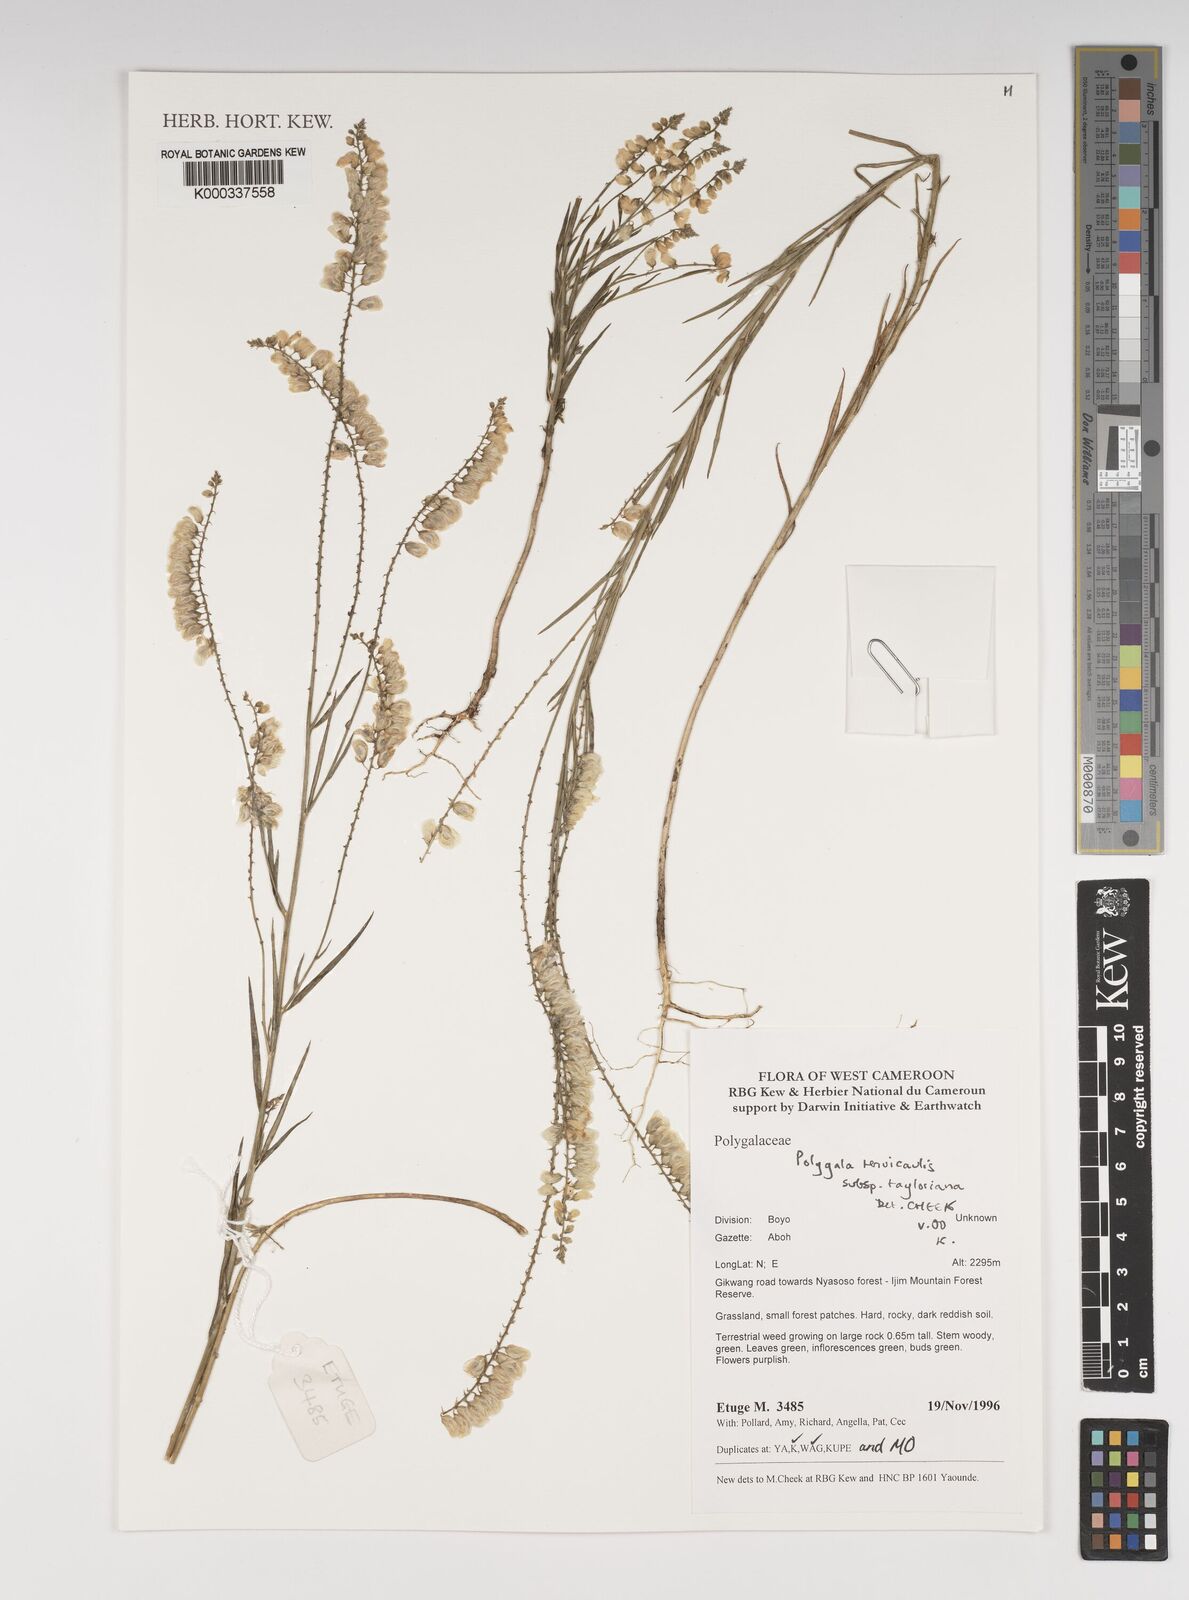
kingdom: Plantae
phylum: Tracheophyta
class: Magnoliopsida
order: Fabales
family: Polygalaceae
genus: Polygala
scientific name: Polygala tenuicaulis
